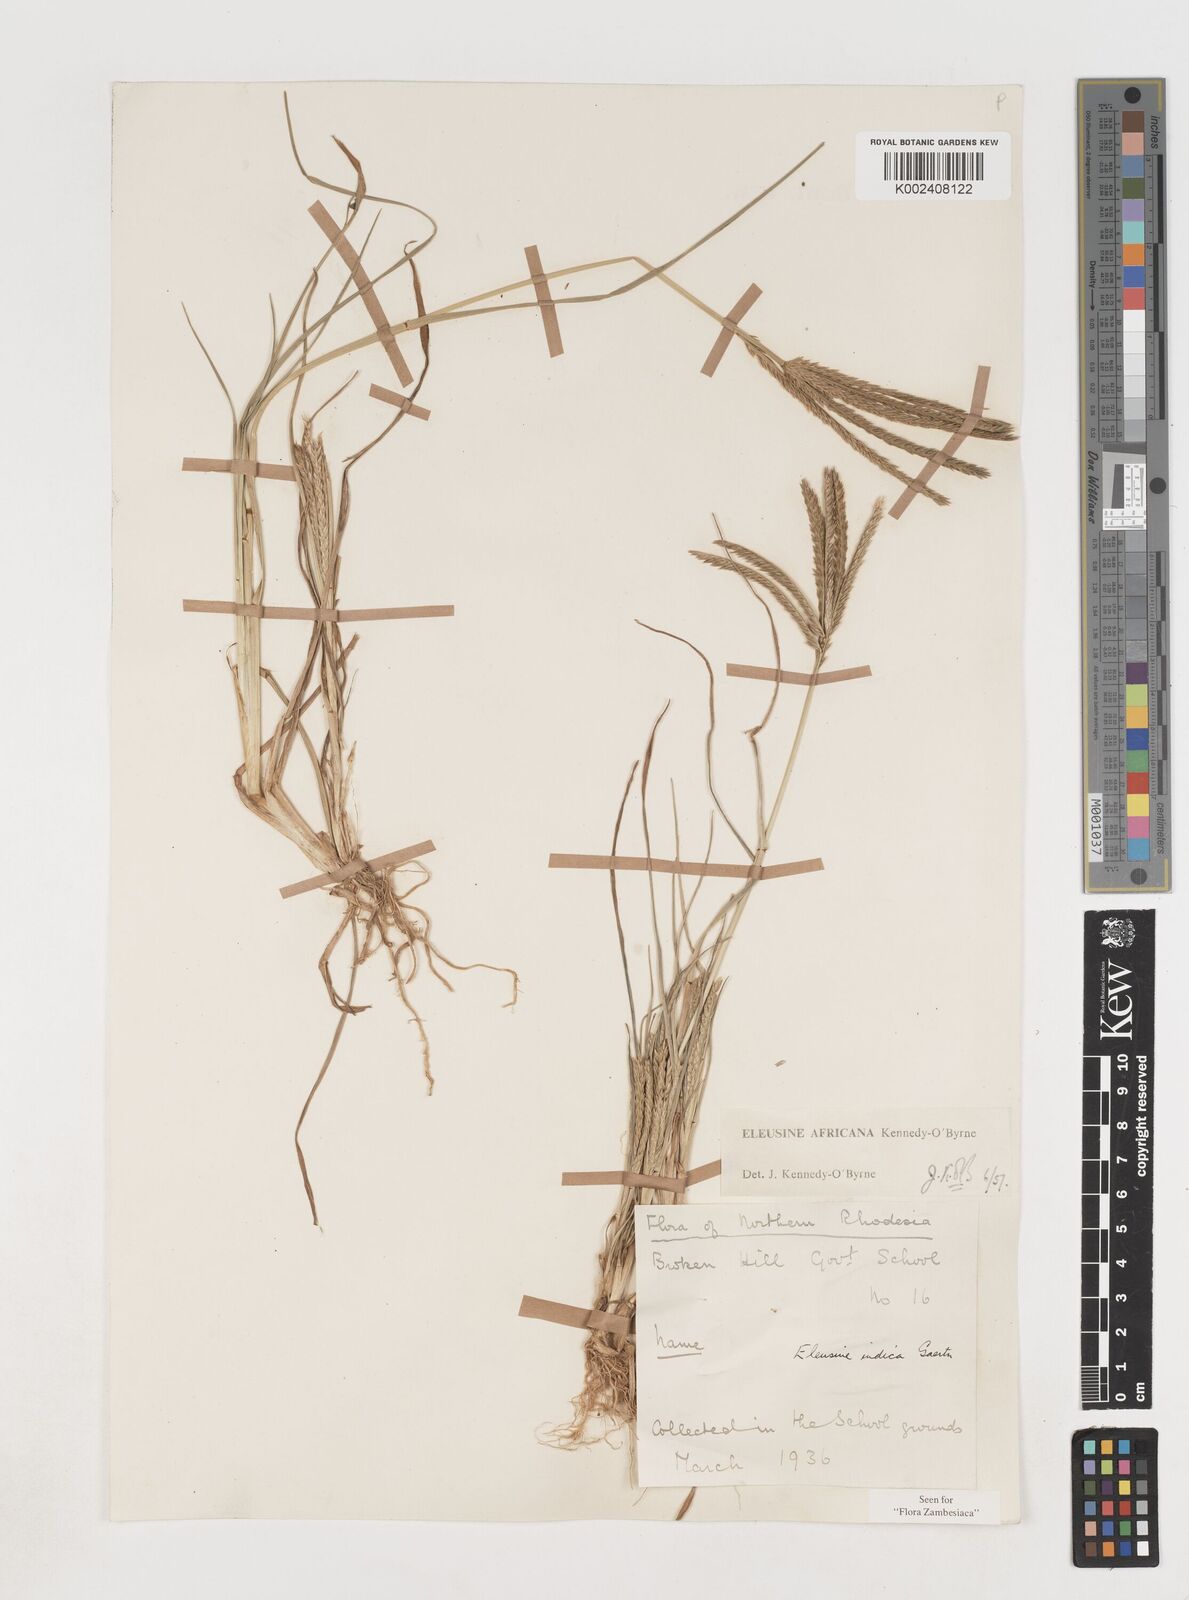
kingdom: Plantae
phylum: Tracheophyta
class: Liliopsida
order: Poales
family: Poaceae
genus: Eleusine
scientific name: Eleusine africana
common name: Wild african finger millet
